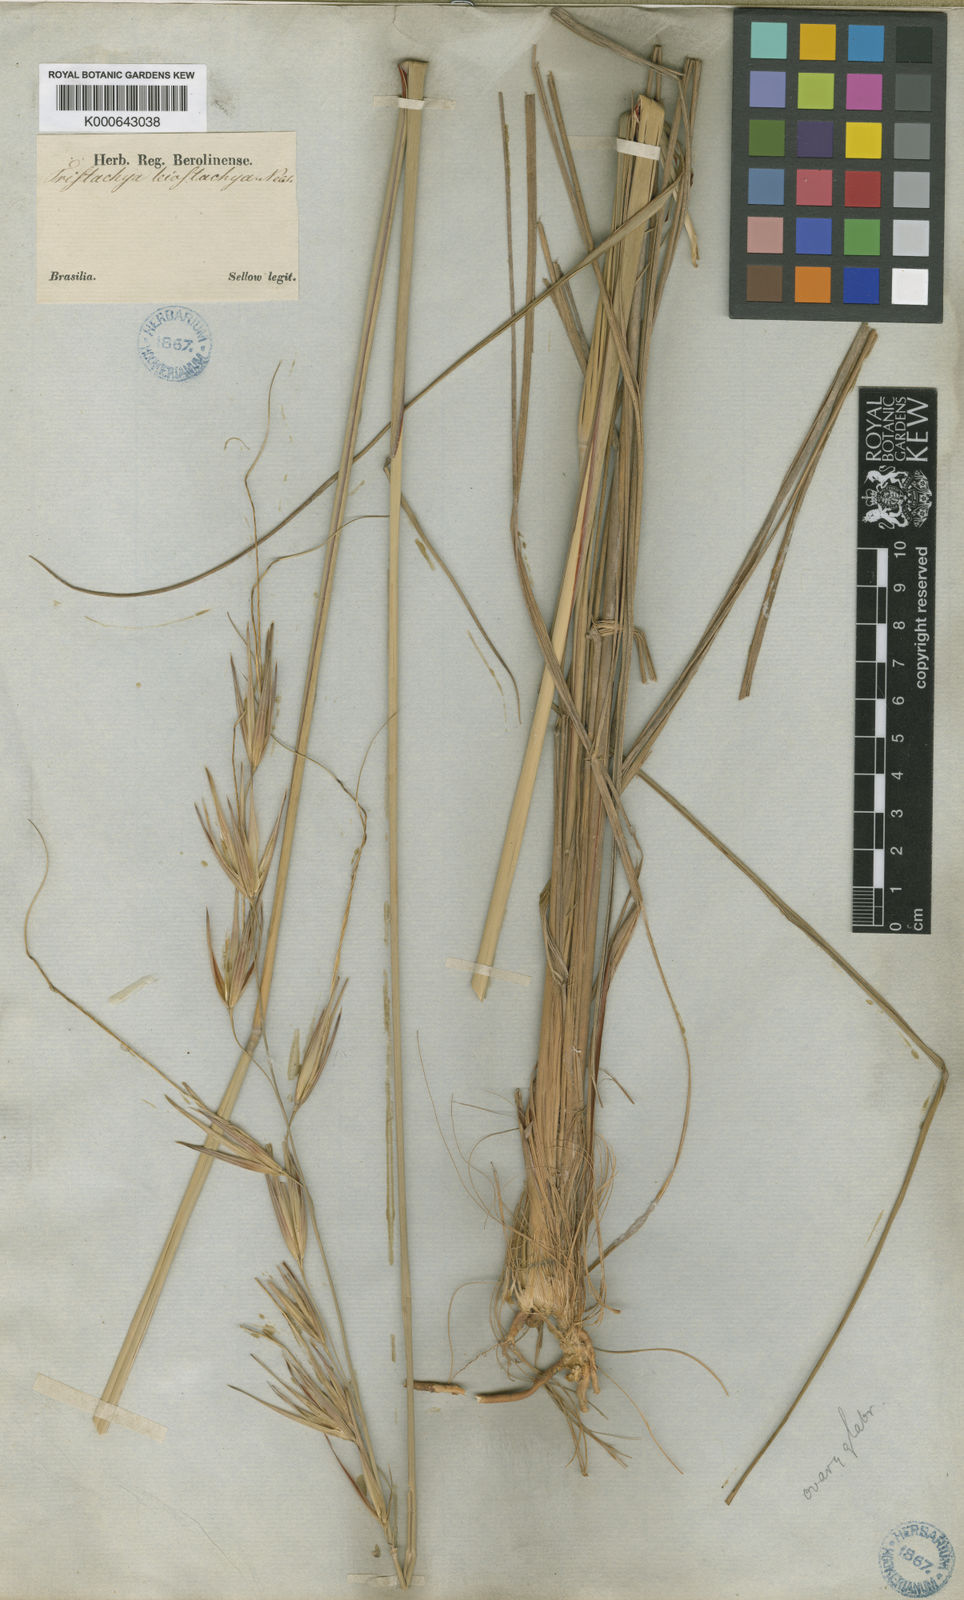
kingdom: Plantae
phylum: Tracheophyta
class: Liliopsida
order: Poales
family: Poaceae
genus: Tristachya
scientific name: Tristachya leiostachya
